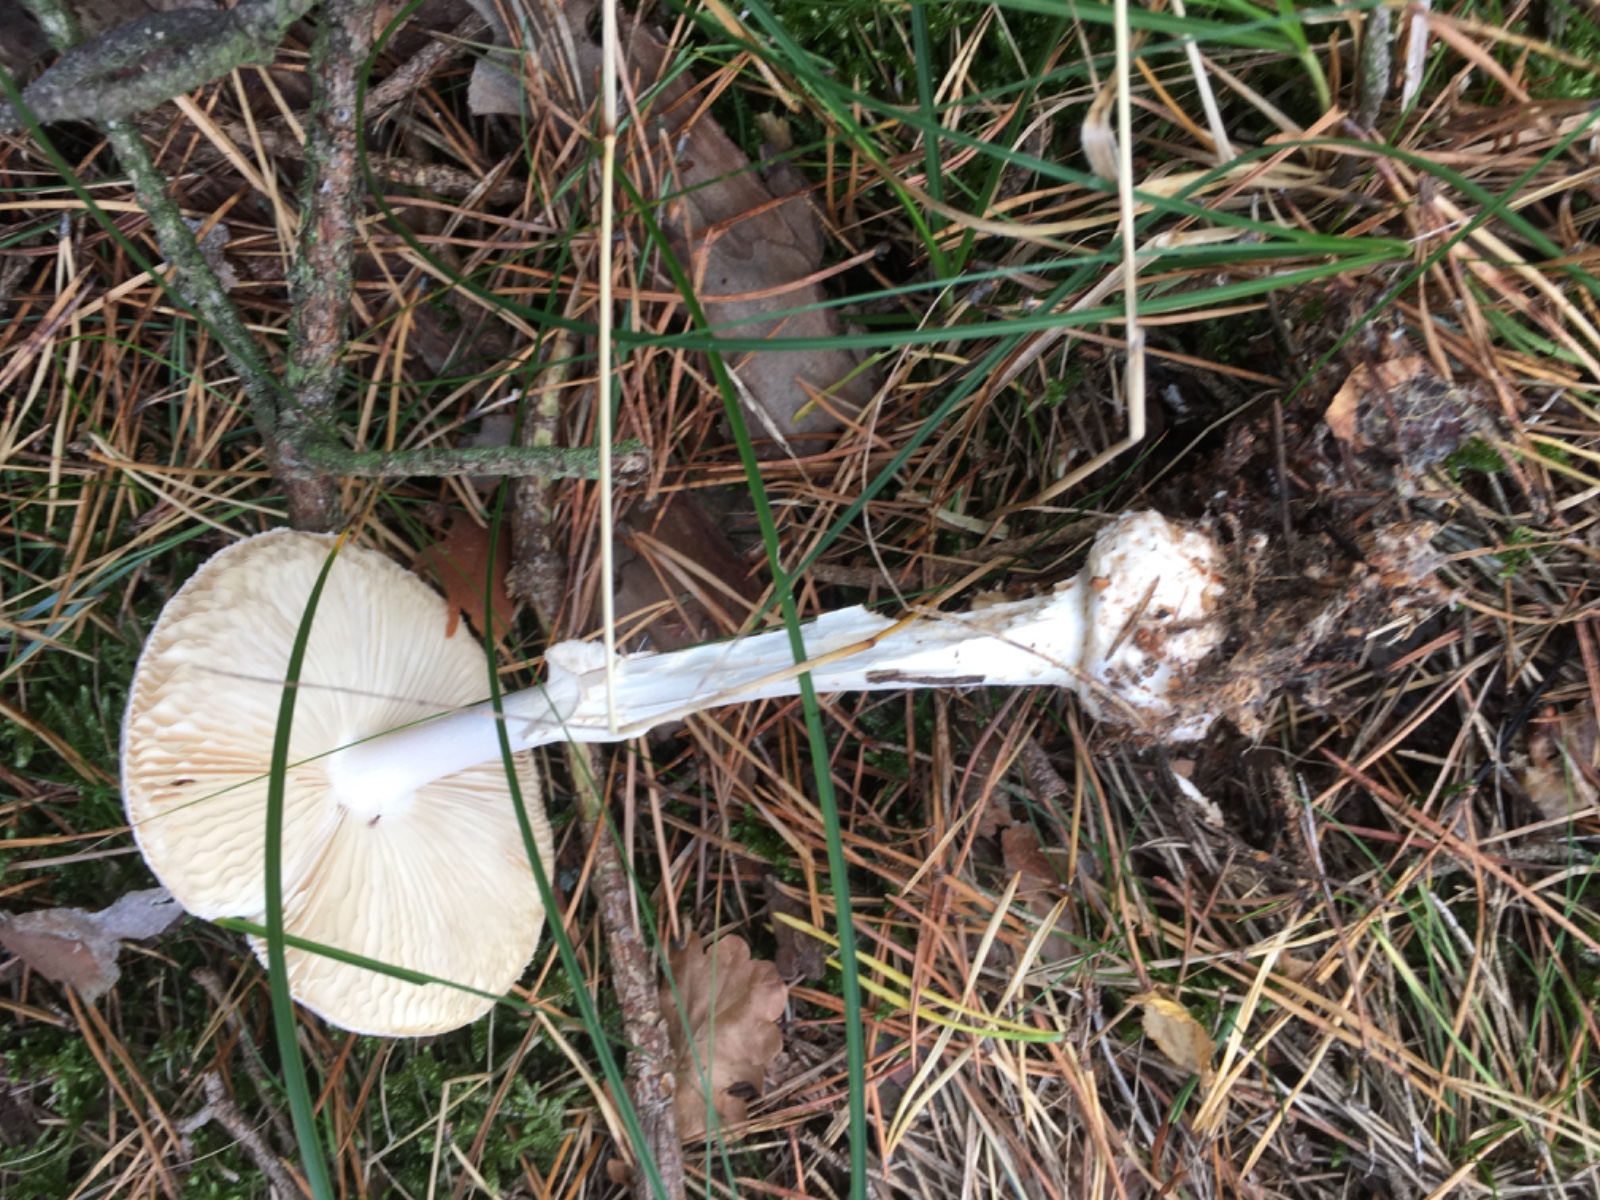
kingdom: Fungi
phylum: Basidiomycota
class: Agaricomycetes
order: Agaricales
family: Amanitaceae
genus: Amanita
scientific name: Amanita citrina
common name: False death-cap
